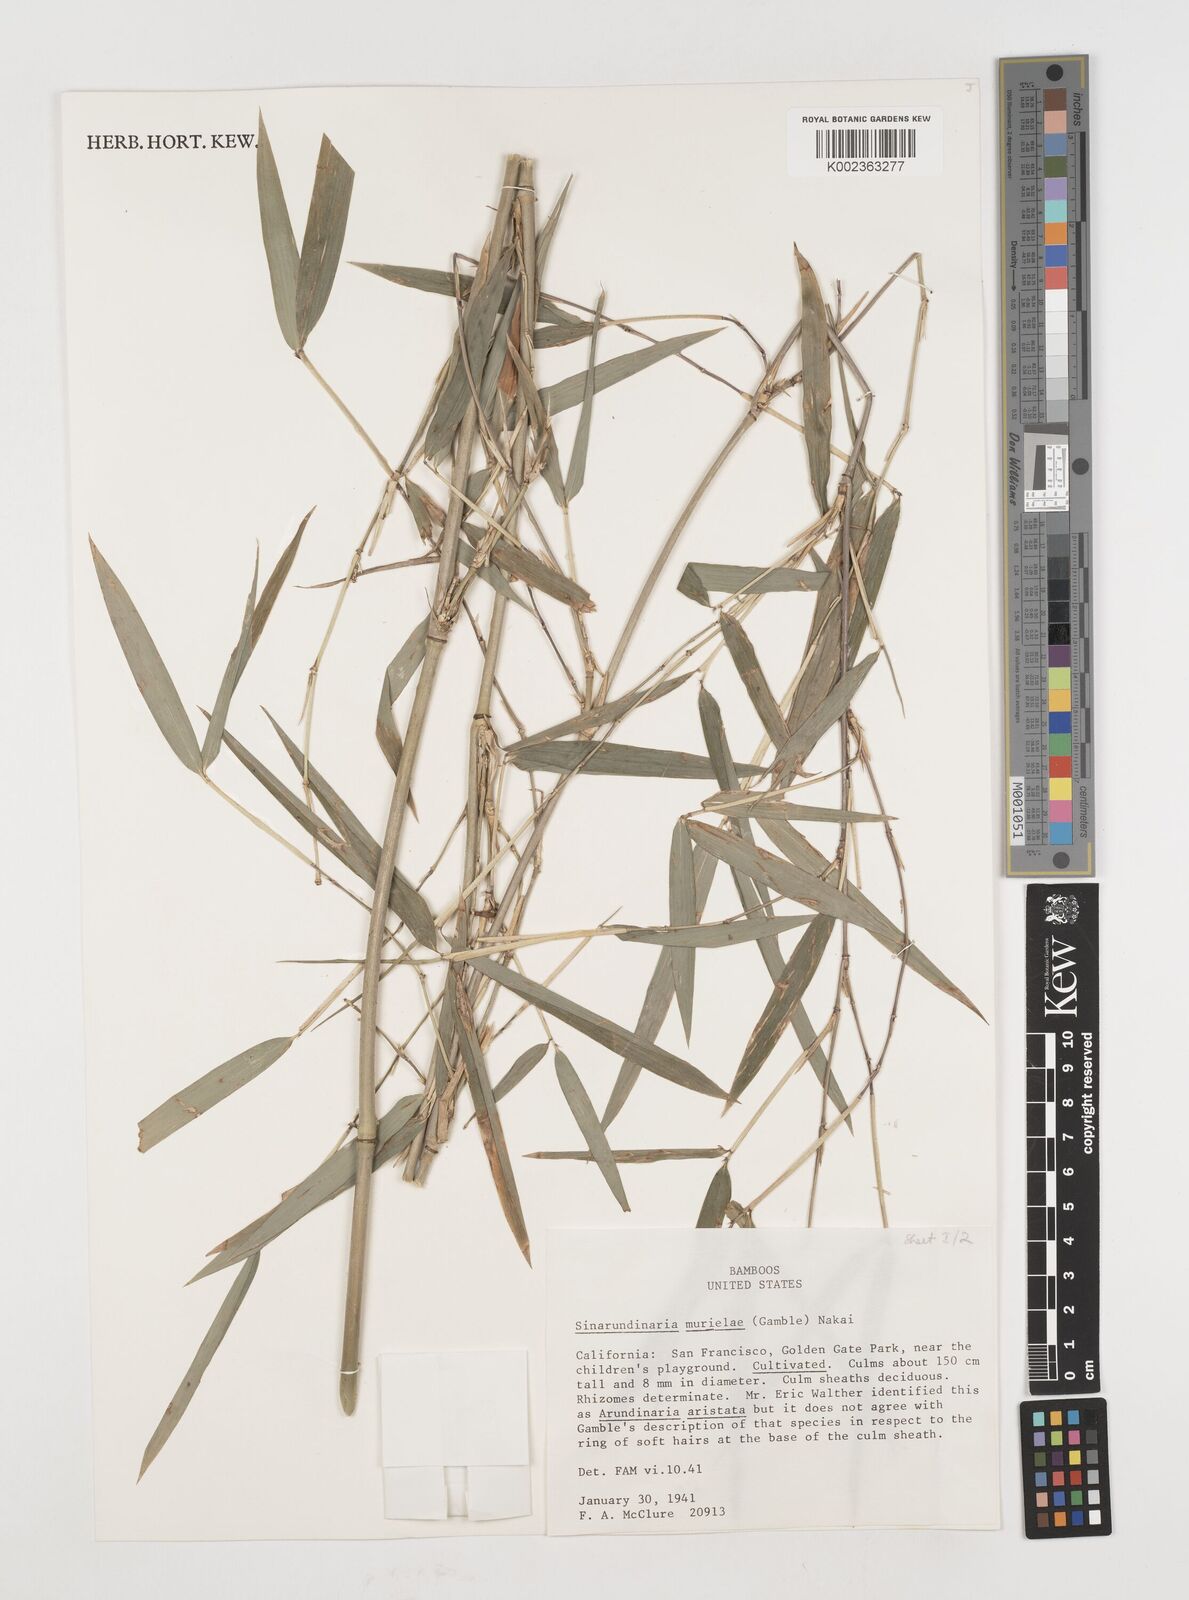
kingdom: Plantae
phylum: Tracheophyta
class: Liliopsida
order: Poales
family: Poaceae
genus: Fargesia
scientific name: Fargesia murielae
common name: Umbrella bamboo
